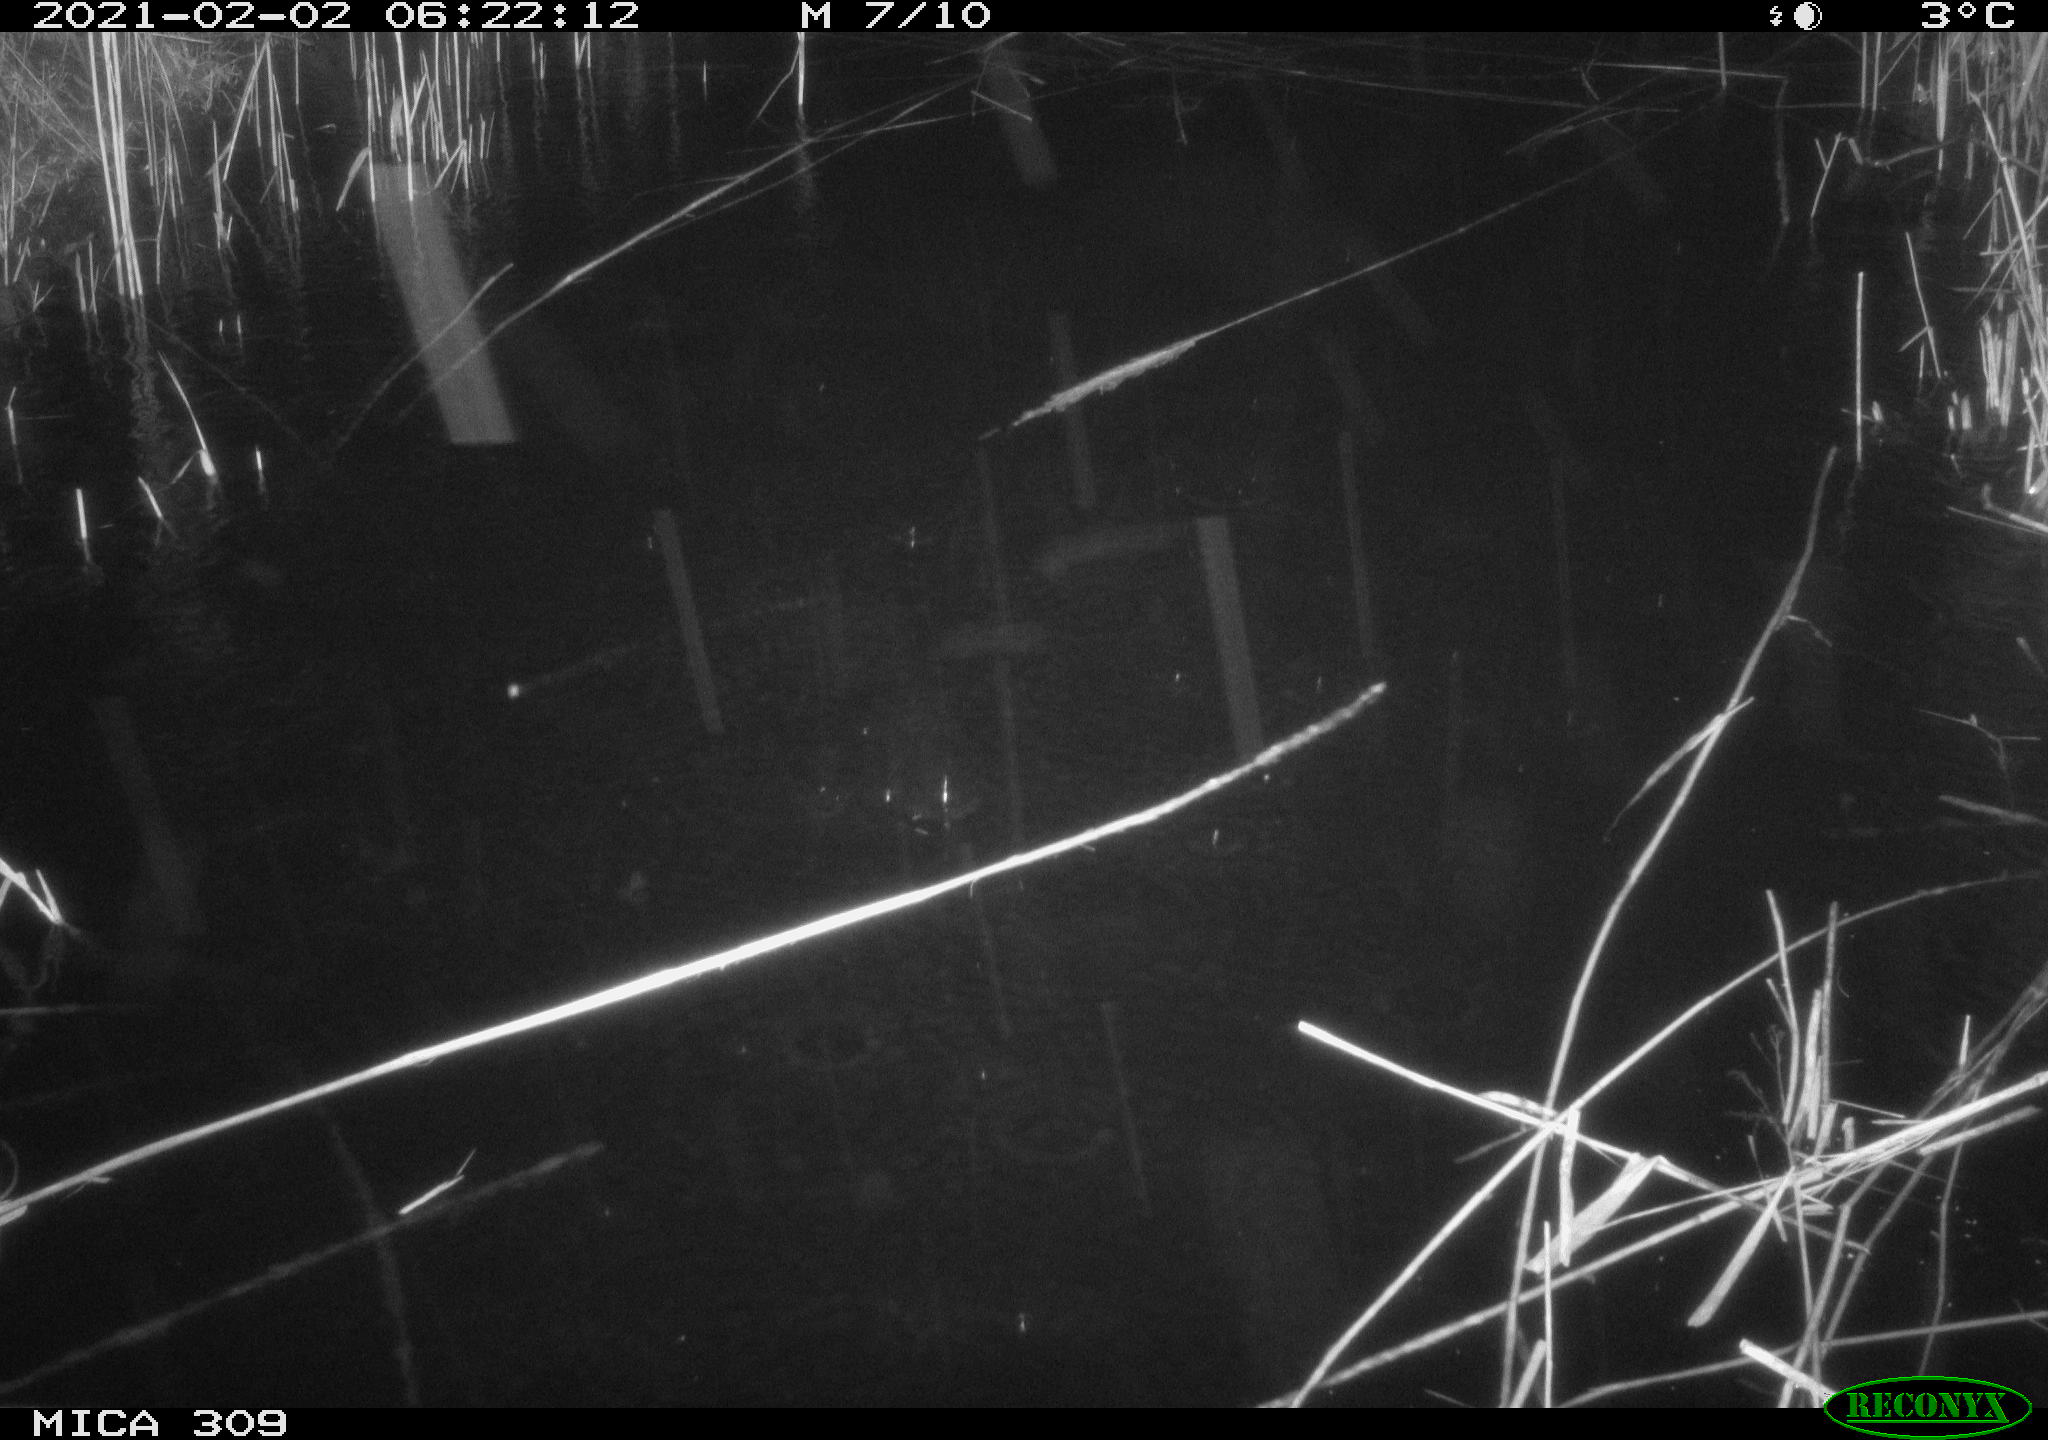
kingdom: Animalia
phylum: Chordata
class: Mammalia
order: Rodentia
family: Muridae
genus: Rattus
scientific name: Rattus norvegicus
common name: Brown rat
